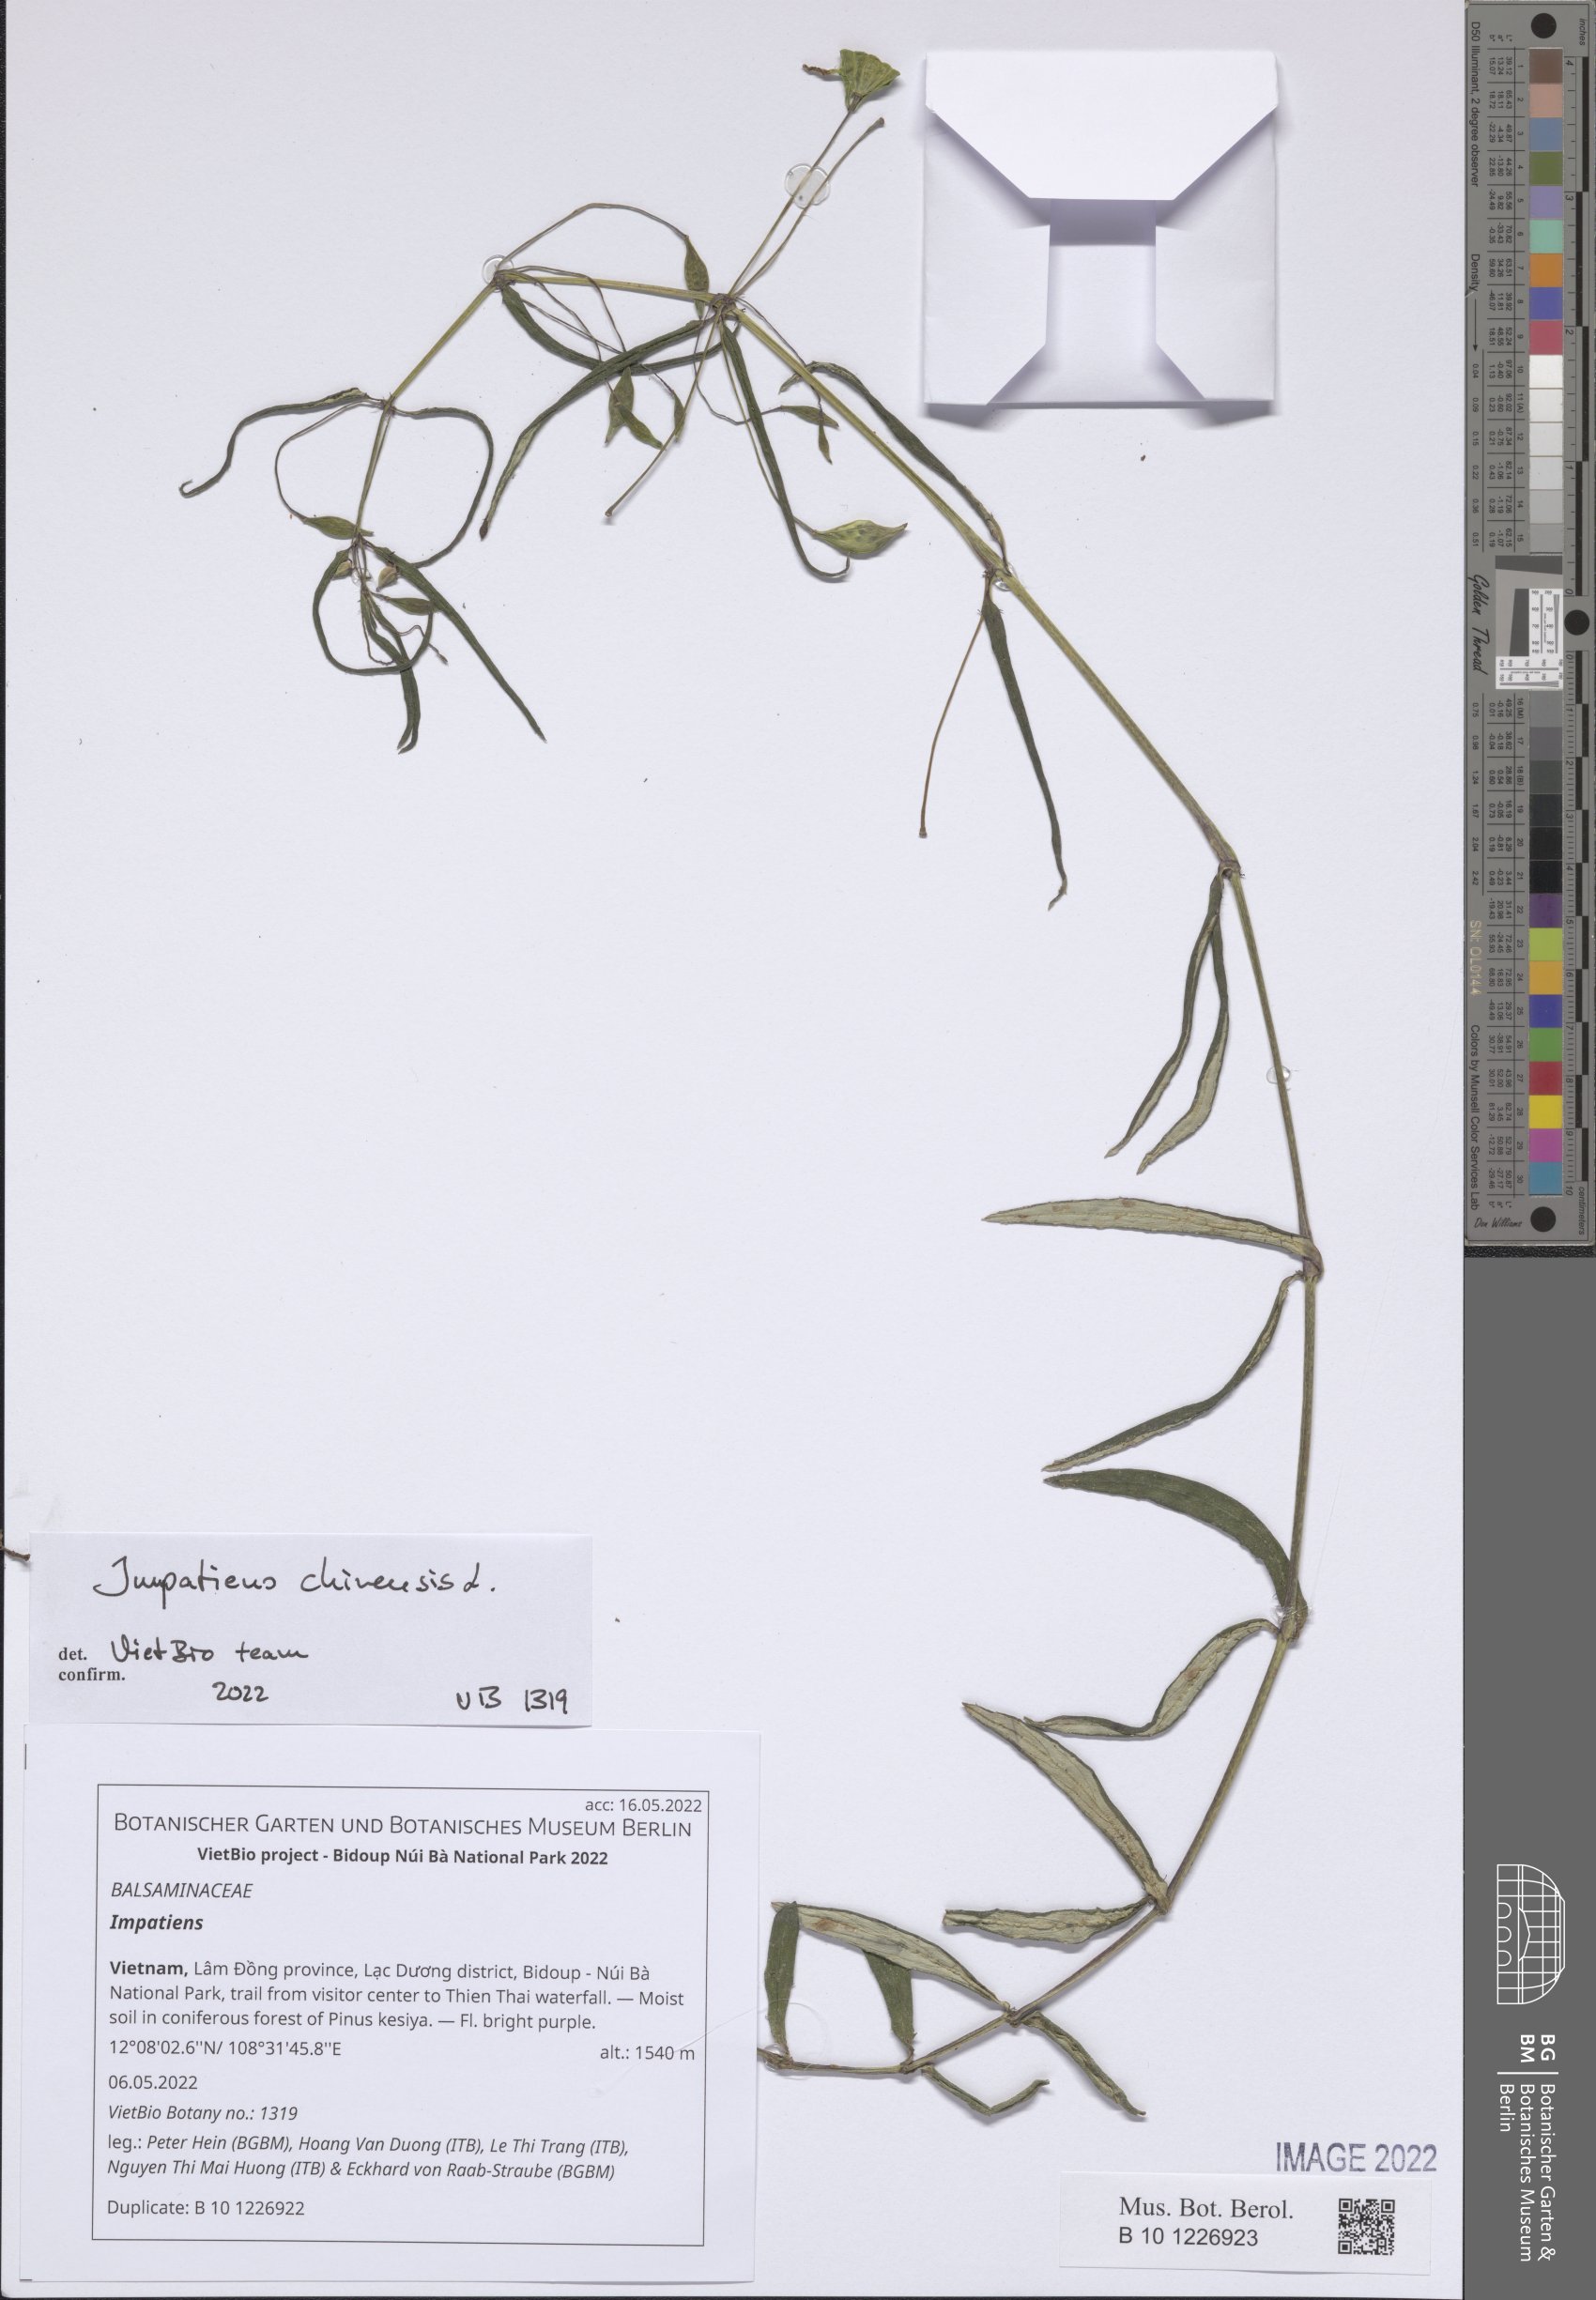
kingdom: Plantae
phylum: Tracheophyta
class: Magnoliopsida
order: Ericales
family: Balsaminaceae
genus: Impatiens
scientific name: Impatiens
